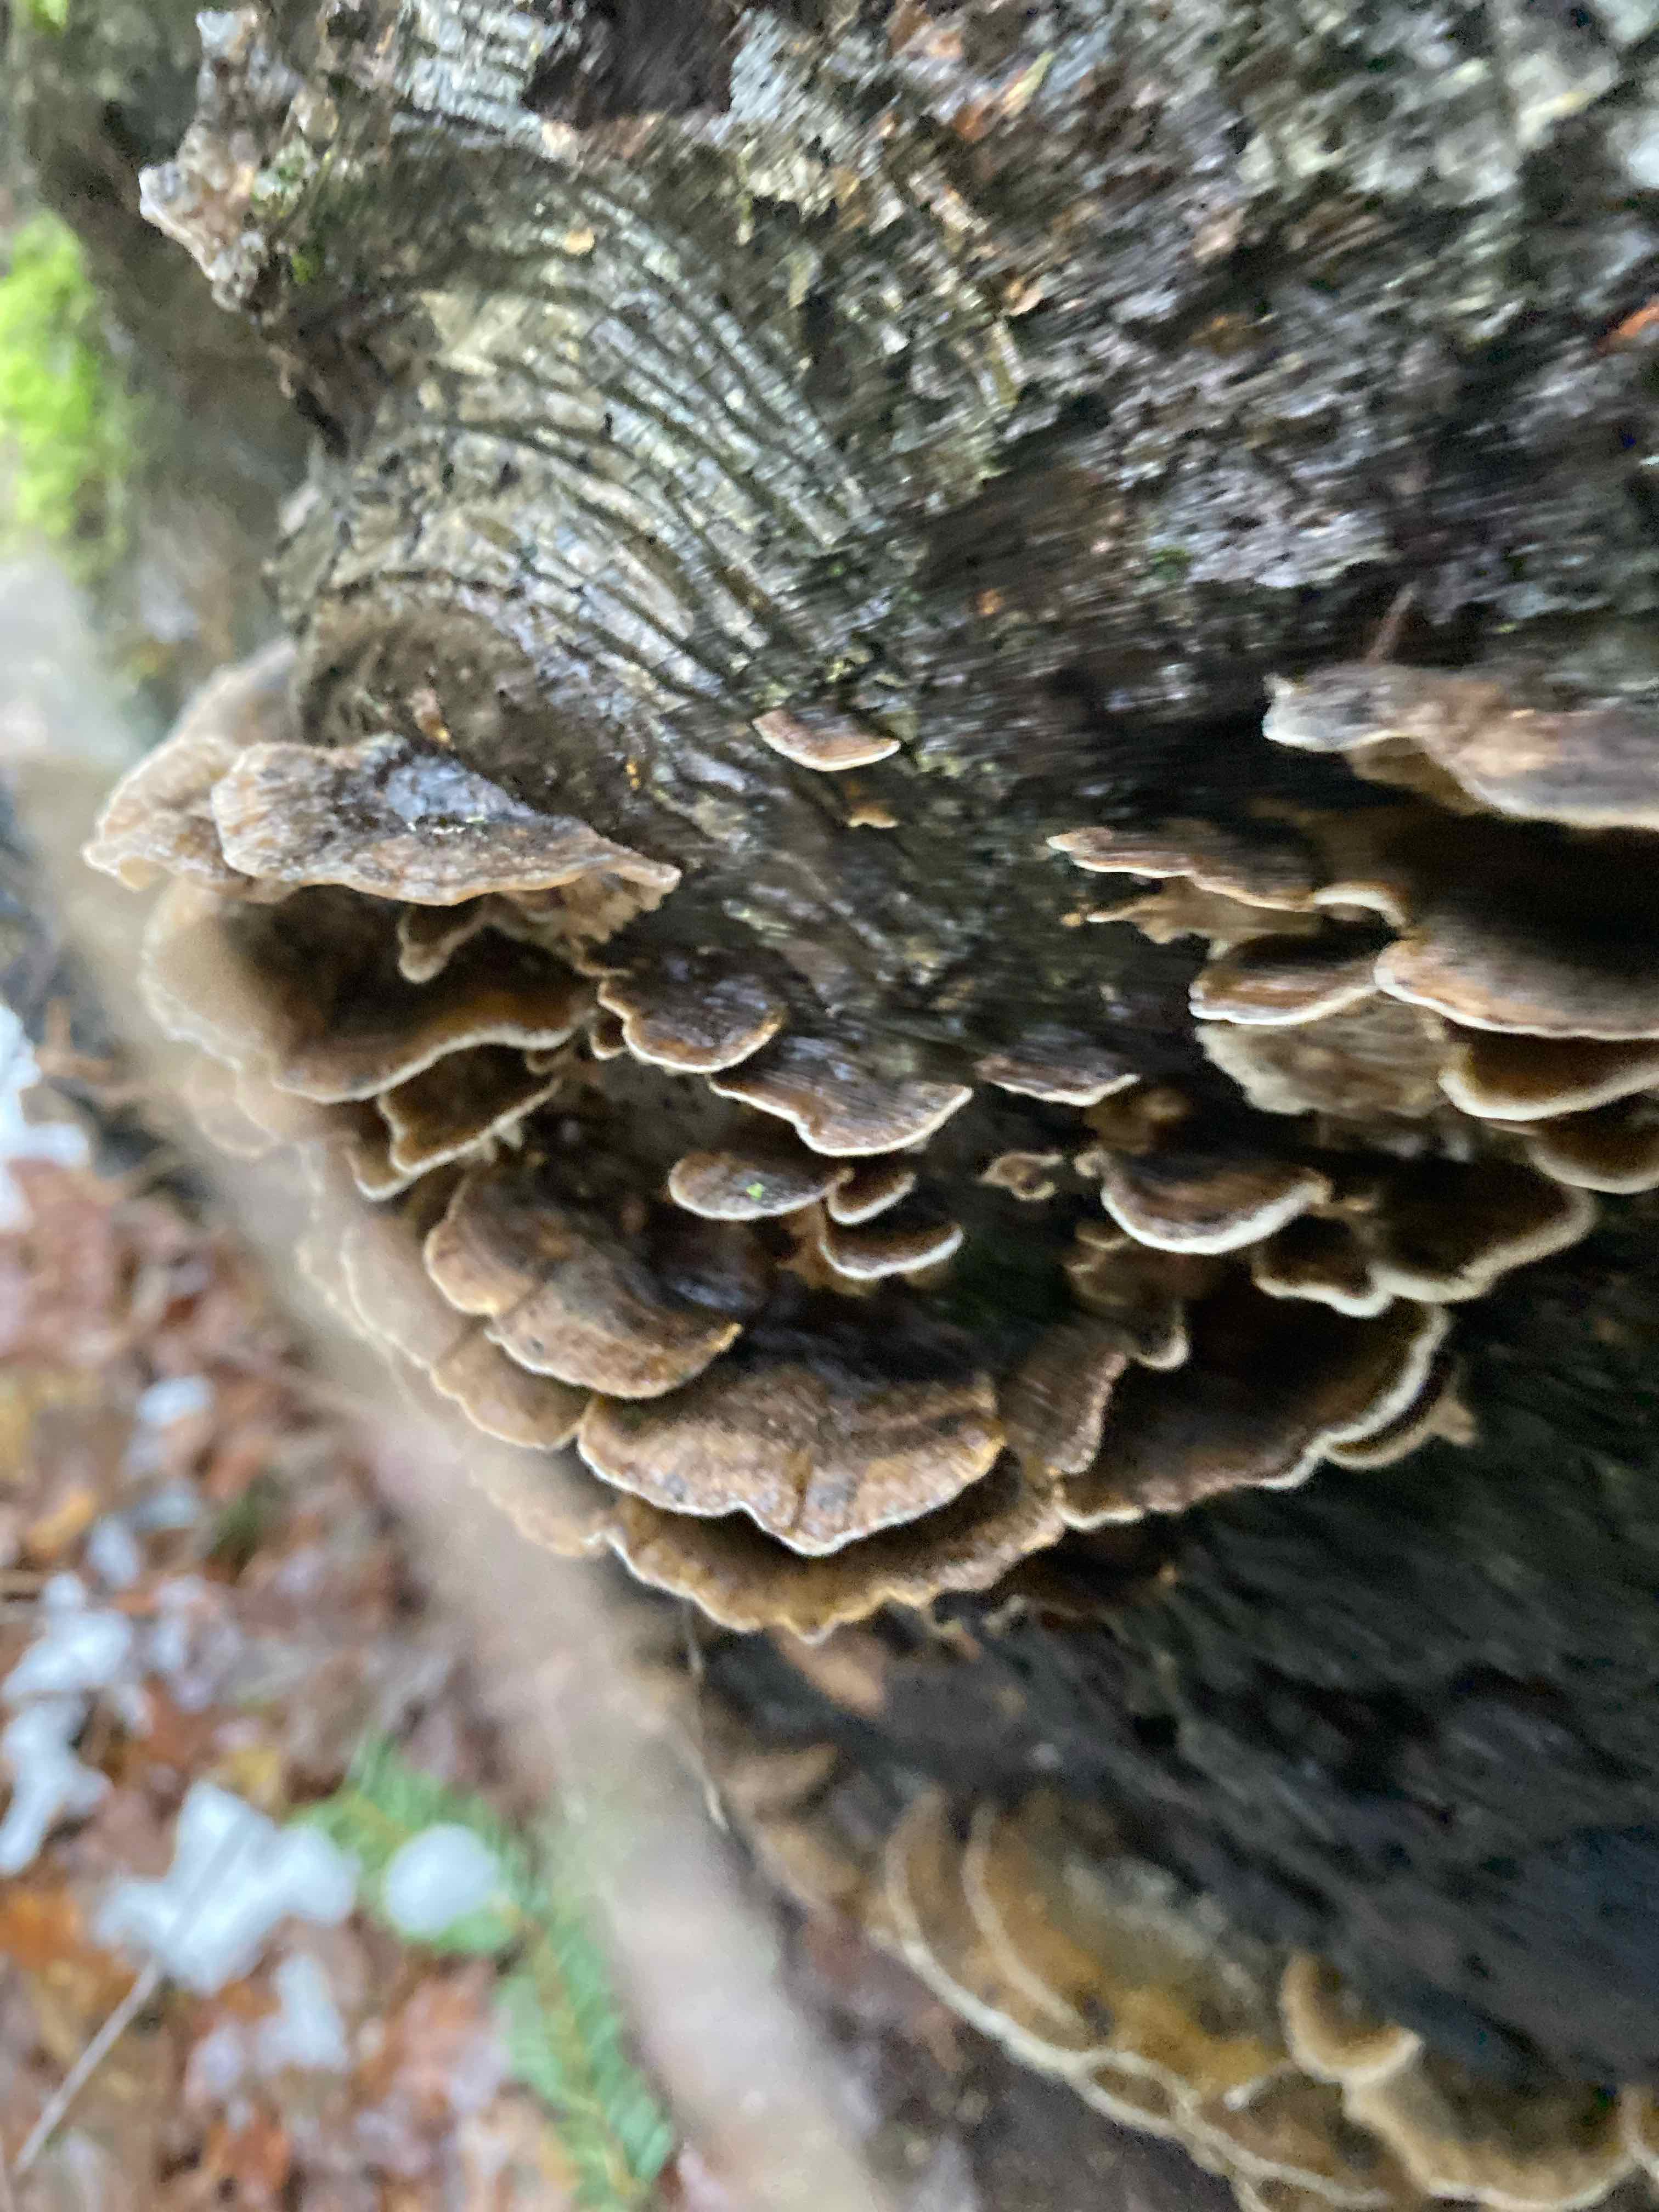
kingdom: Fungi
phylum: Basidiomycota
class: Agaricomycetes
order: Polyporales
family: Phanerochaetaceae
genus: Bjerkandera
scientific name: Bjerkandera adusta
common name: sveden sodporesvamp
